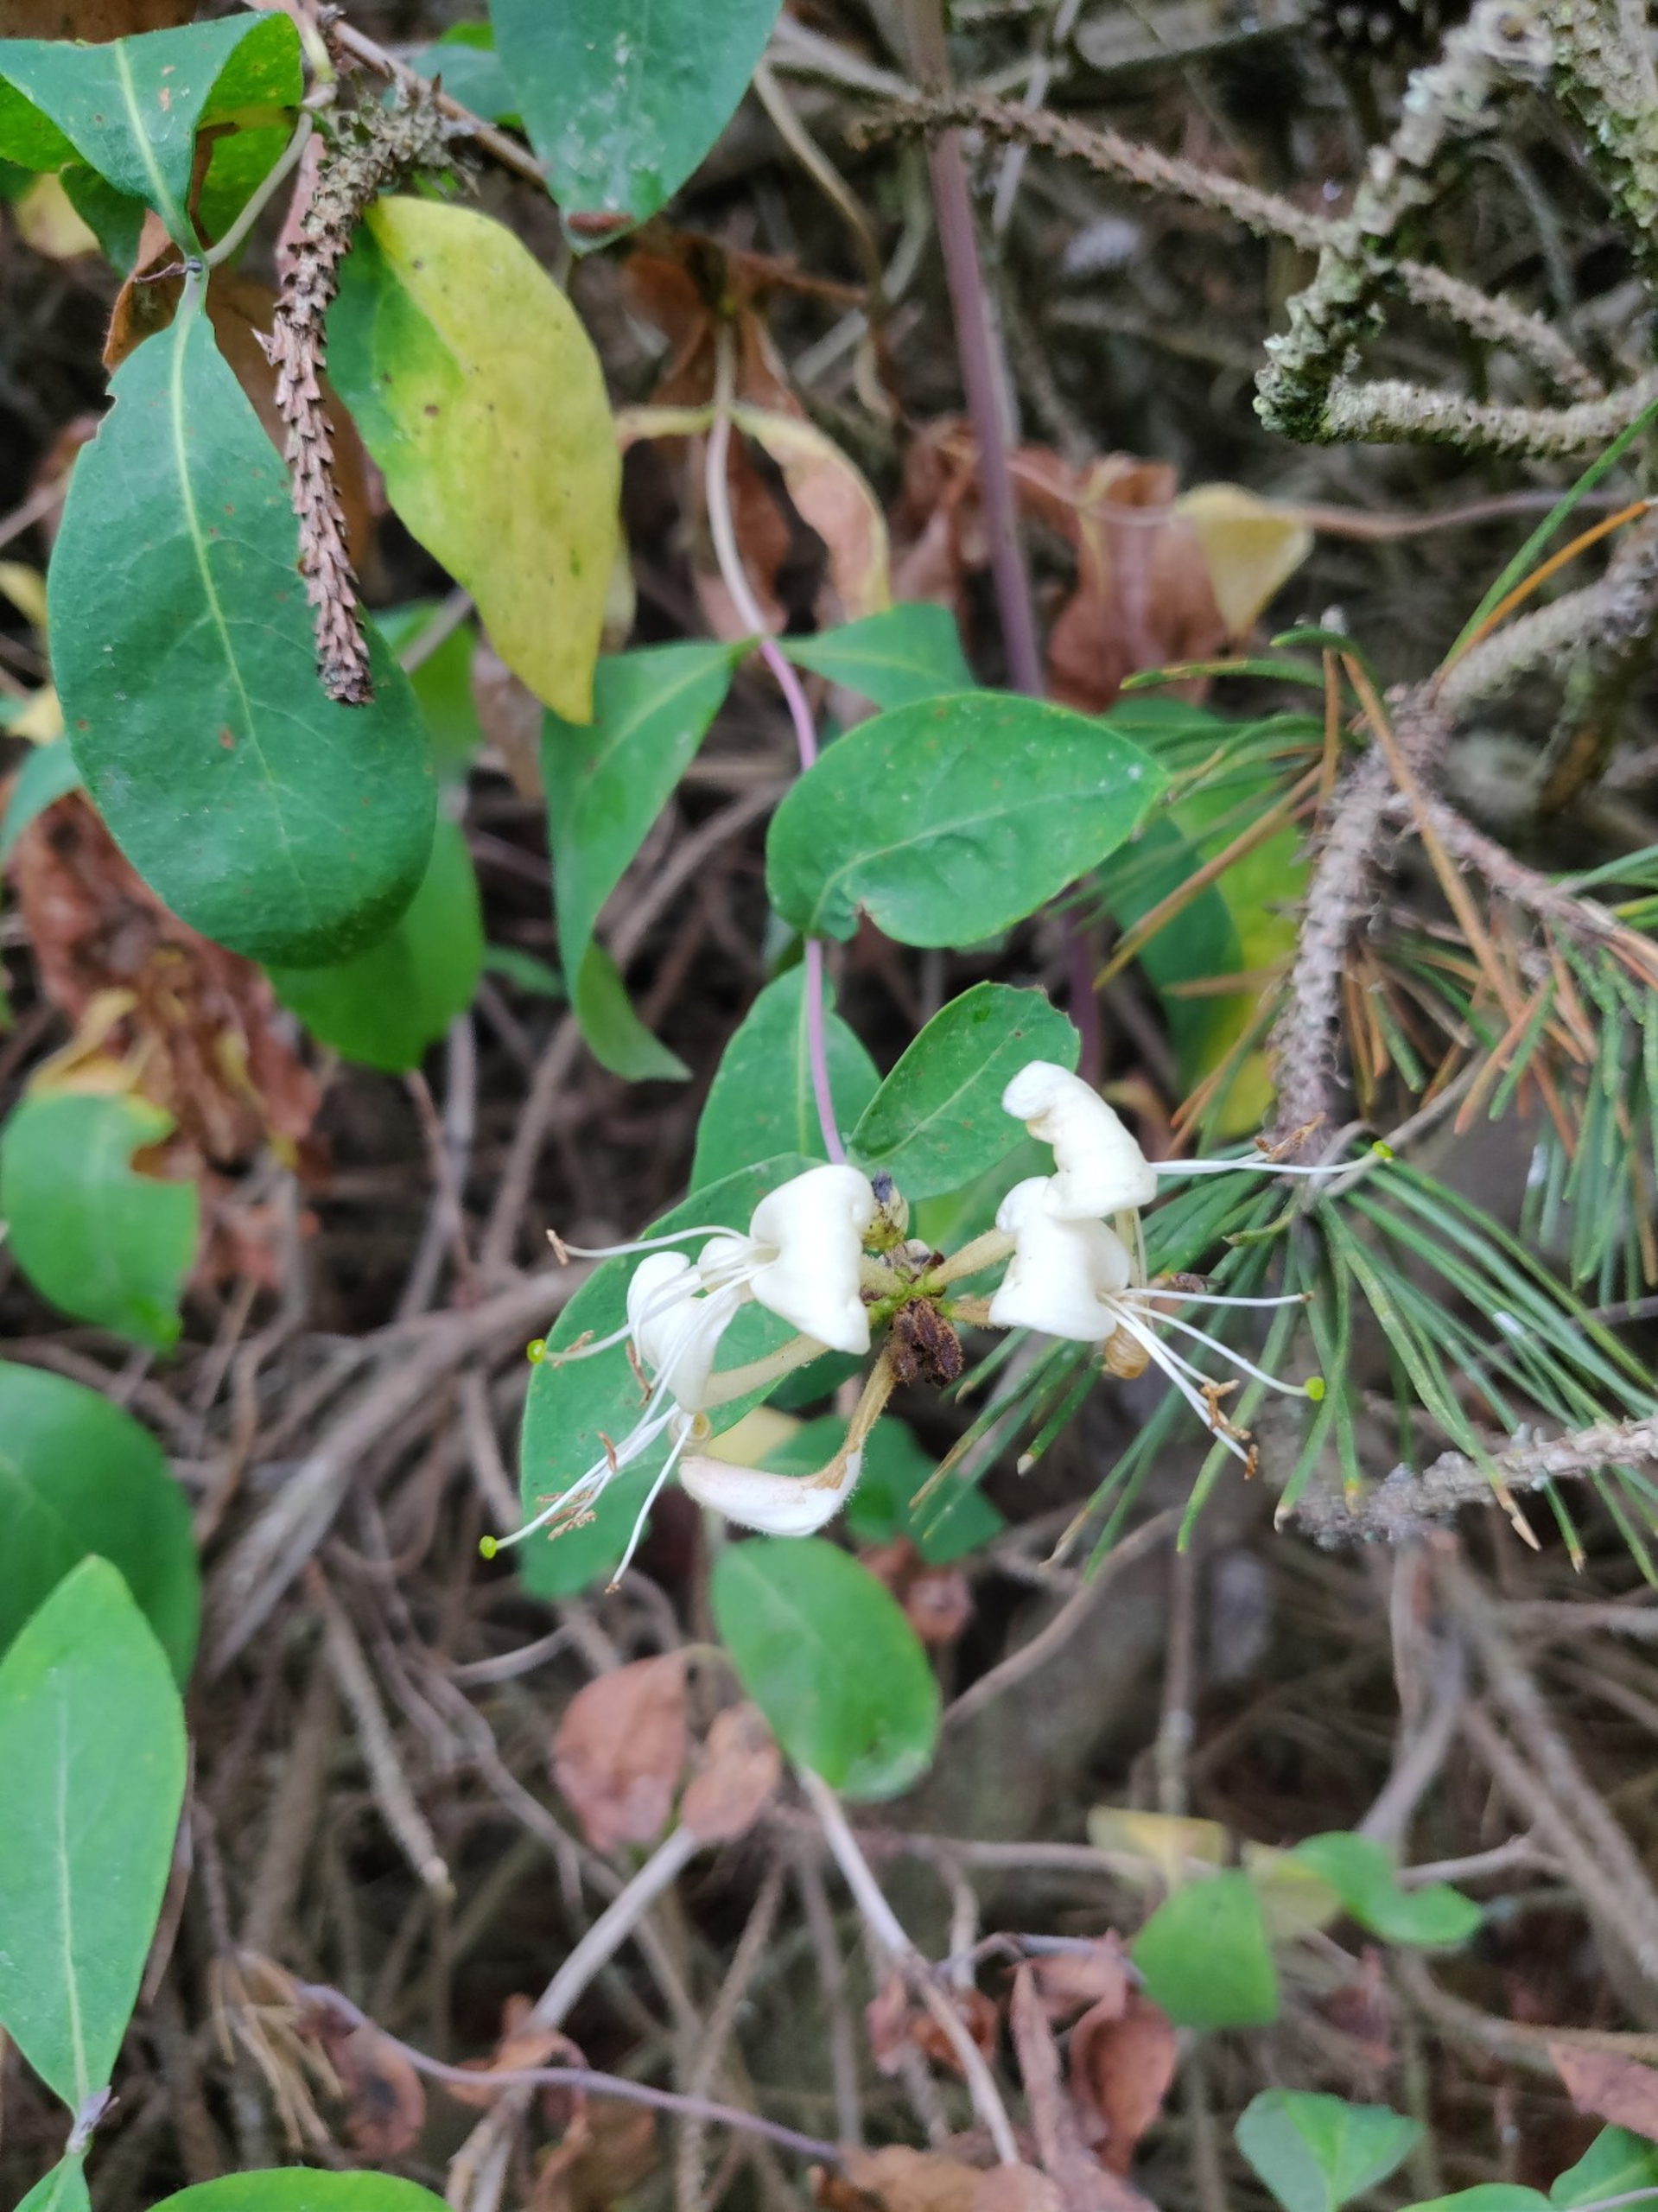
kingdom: Plantae
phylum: Tracheophyta
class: Magnoliopsida
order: Dipsacales
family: Caprifoliaceae
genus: Lonicera
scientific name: Lonicera periclymenum
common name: Almindelig gedeblad
